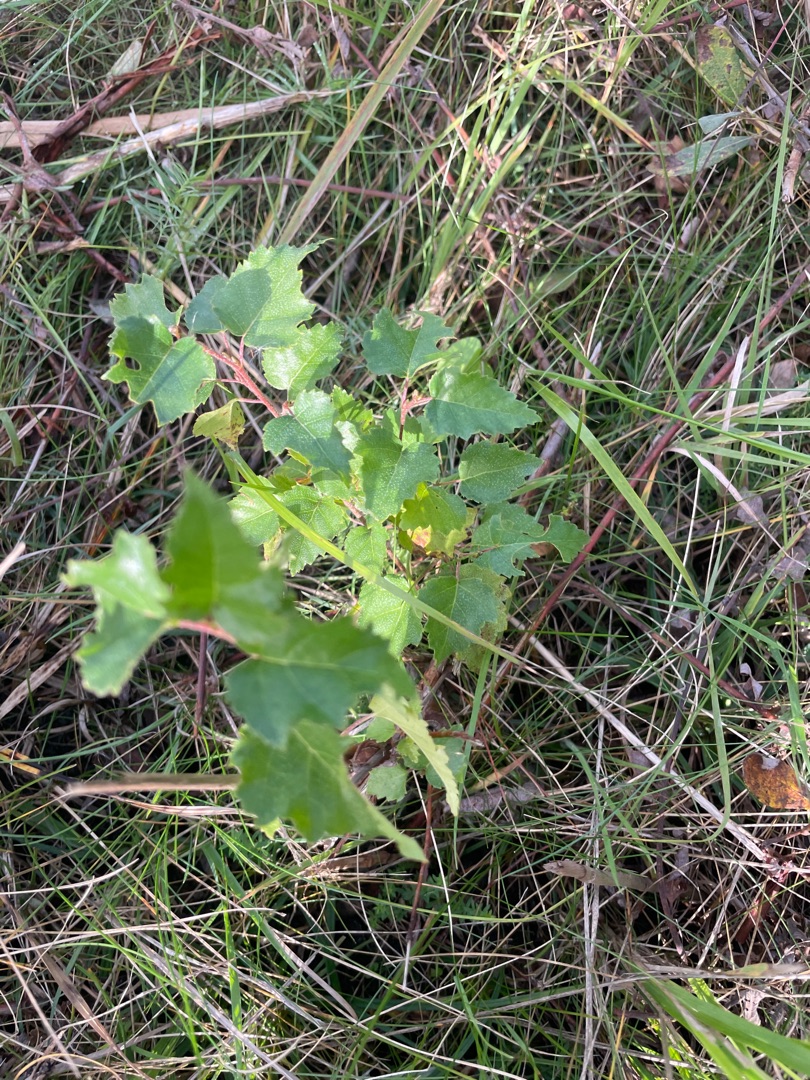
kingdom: Plantae
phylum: Tracheophyta
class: Magnoliopsida
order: Fagales
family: Betulaceae
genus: Betula
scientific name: Betula pendula
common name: Vorte-birk
